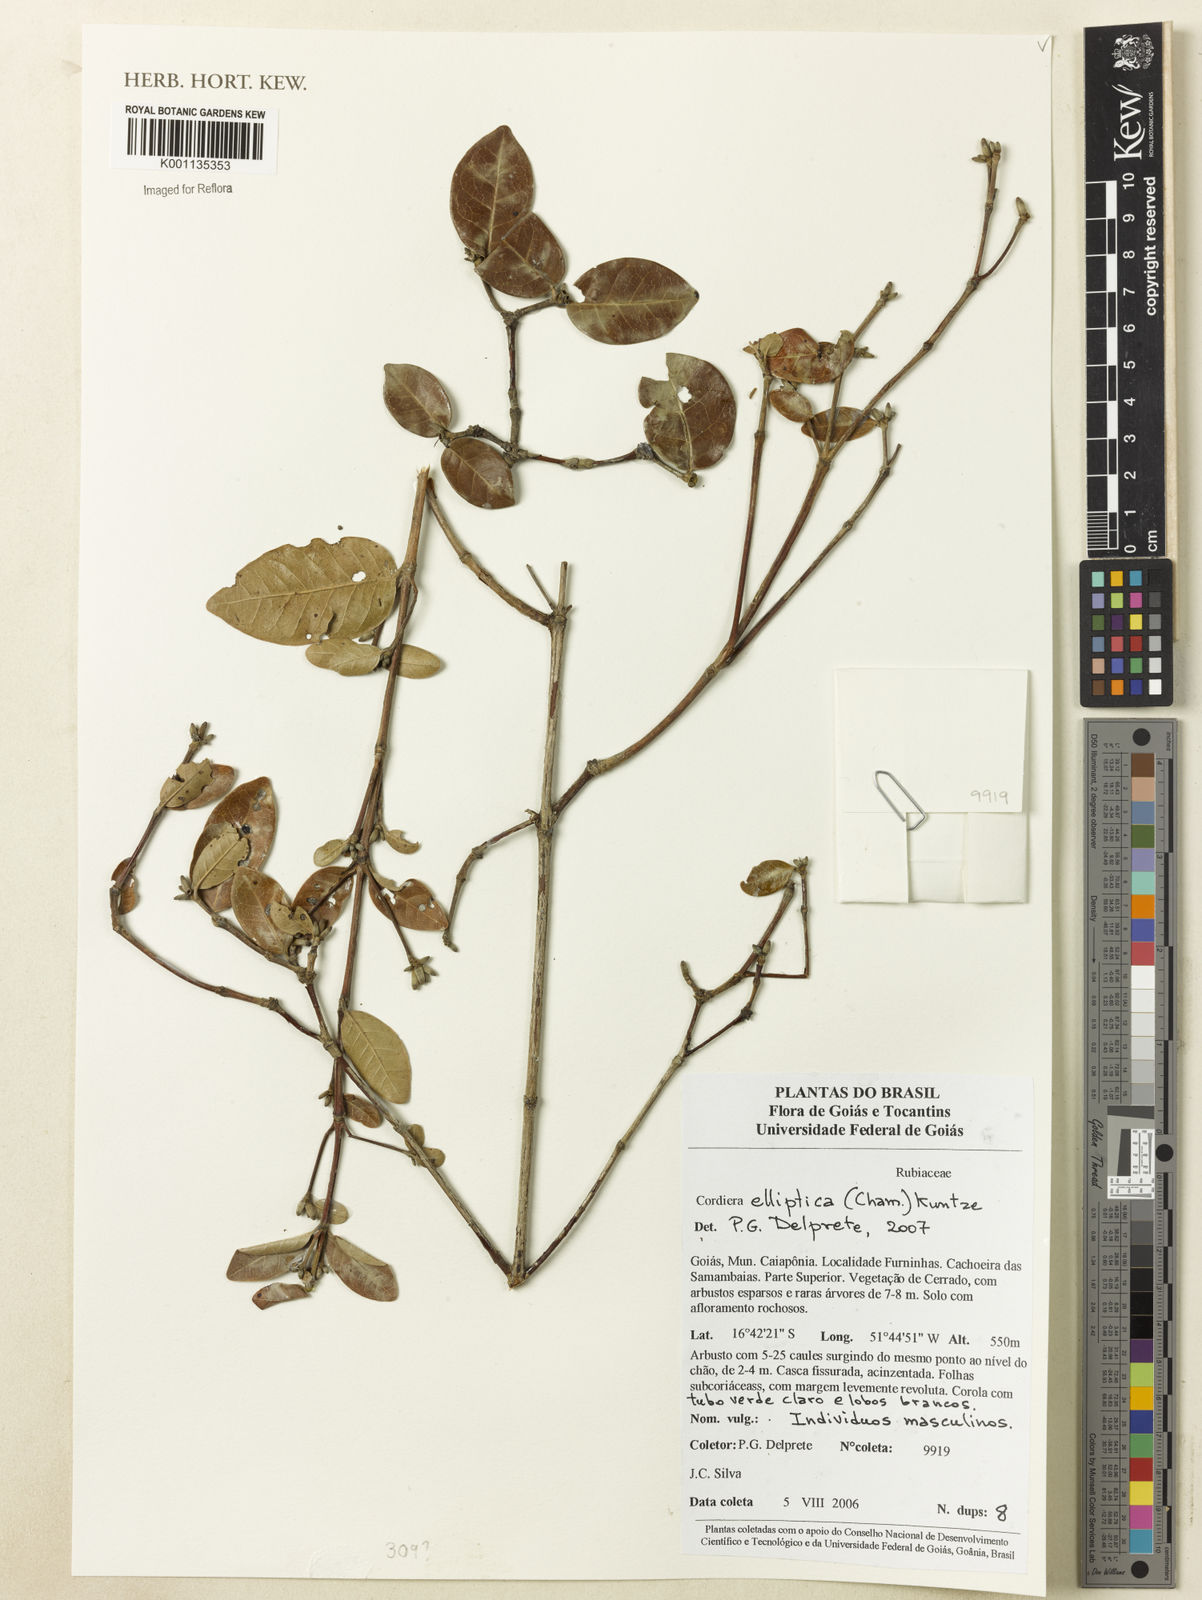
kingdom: Plantae
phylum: Tracheophyta
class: Magnoliopsida
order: Gentianales
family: Rubiaceae
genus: Cordiera
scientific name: Cordiera elliptica
